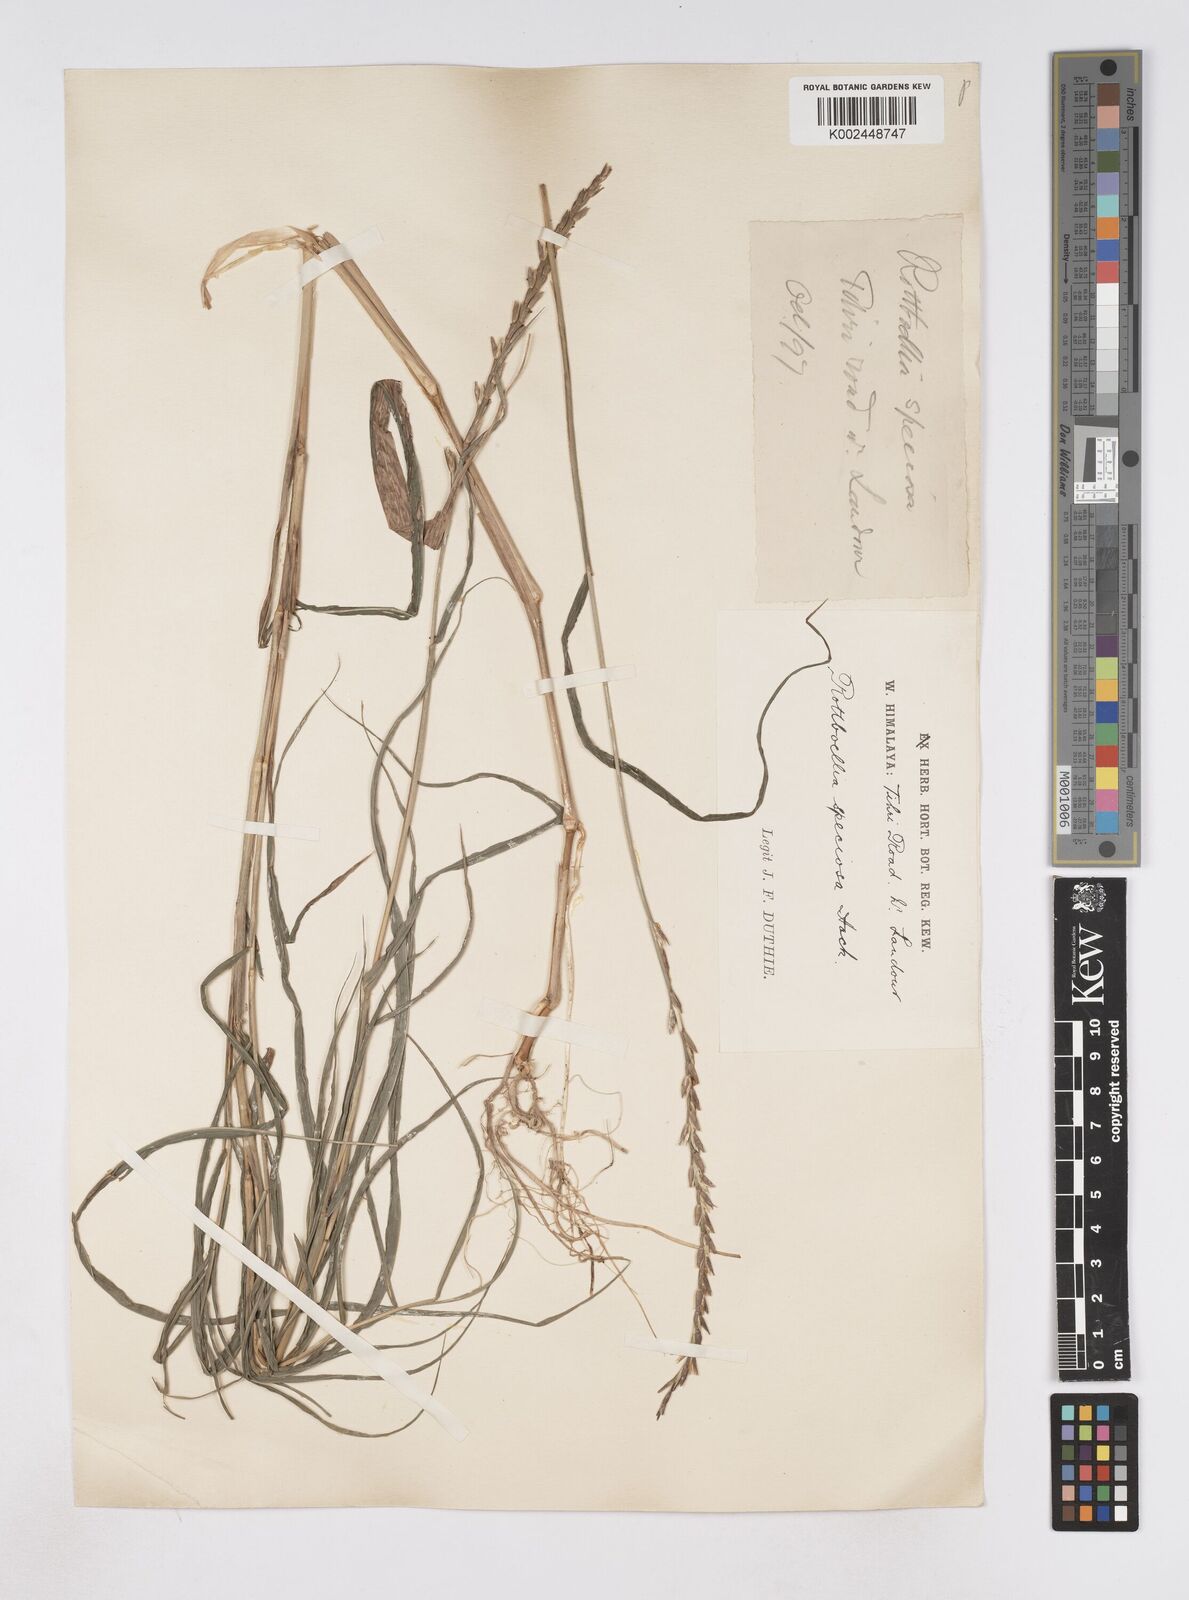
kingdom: Plantae
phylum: Tracheophyta
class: Liliopsida
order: Poales
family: Poaceae
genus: Phacelurus
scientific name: Phacelurus speciosus
